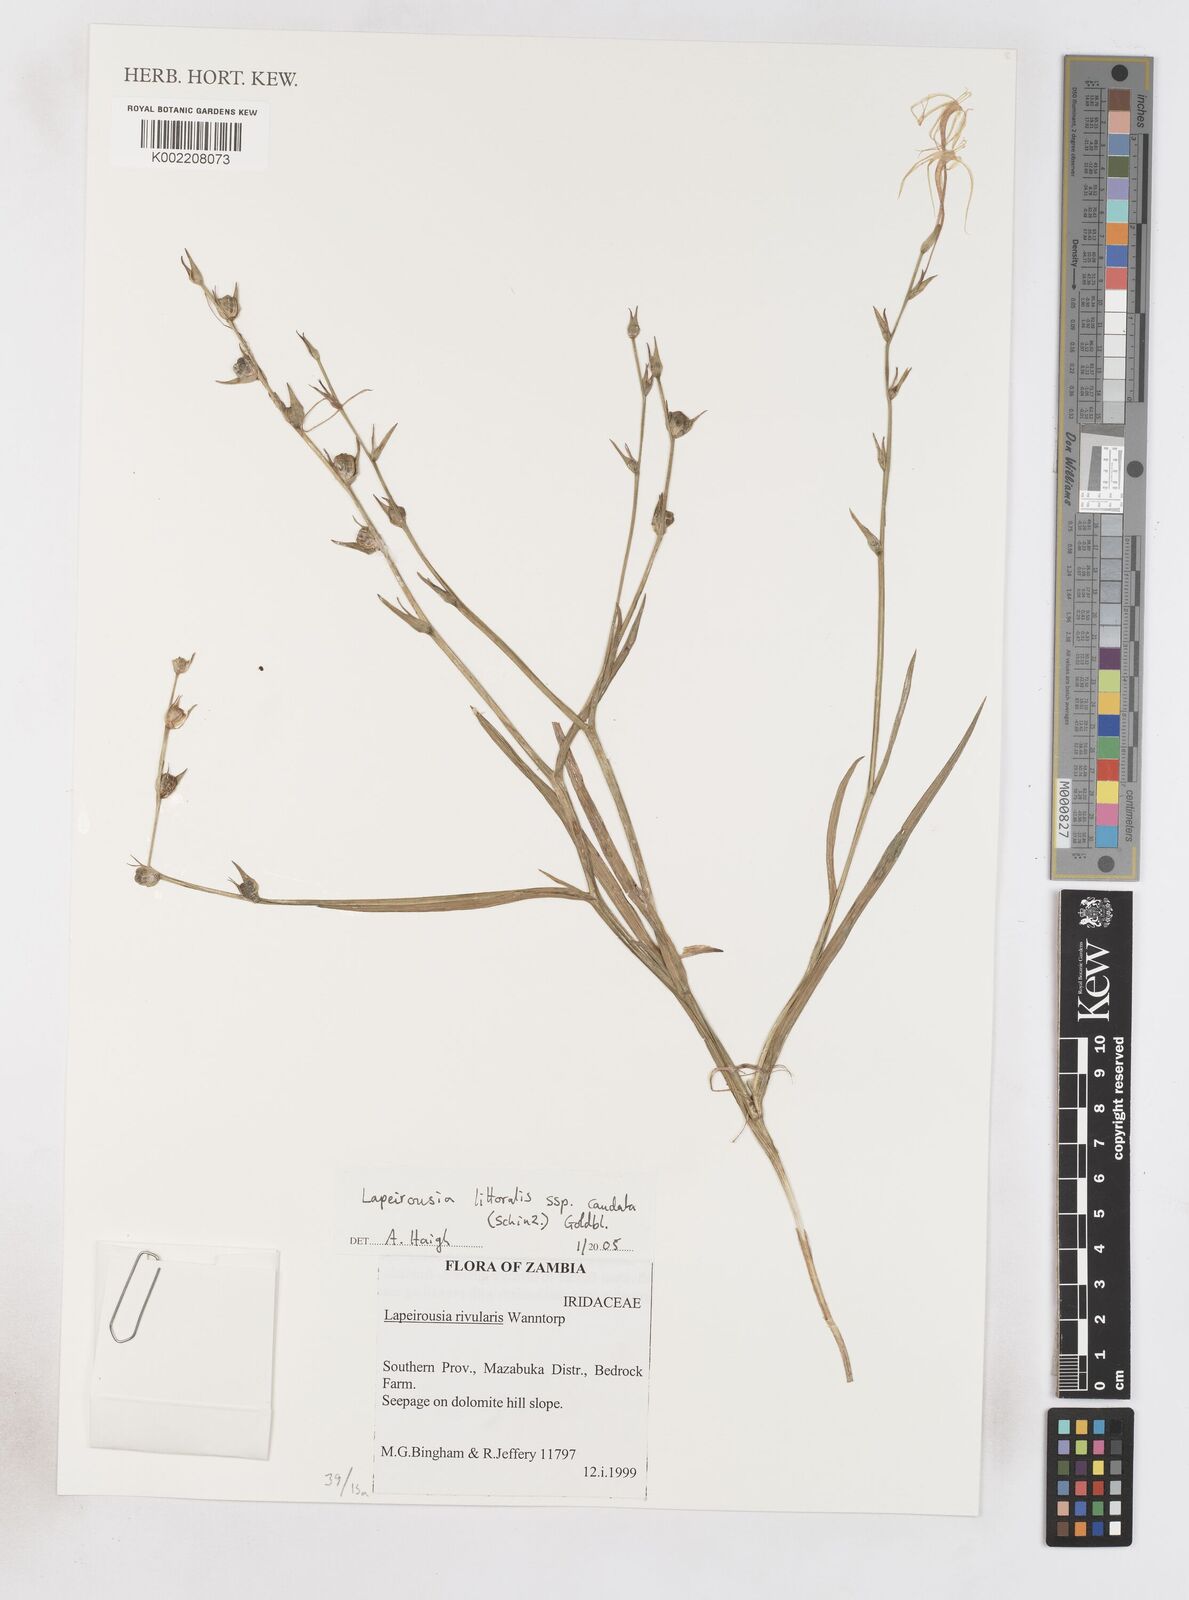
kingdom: Plantae
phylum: Tracheophyta
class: Liliopsida
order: Asparagales
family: Iridaceae
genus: Lapeirousia
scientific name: Lapeirousia caudata
